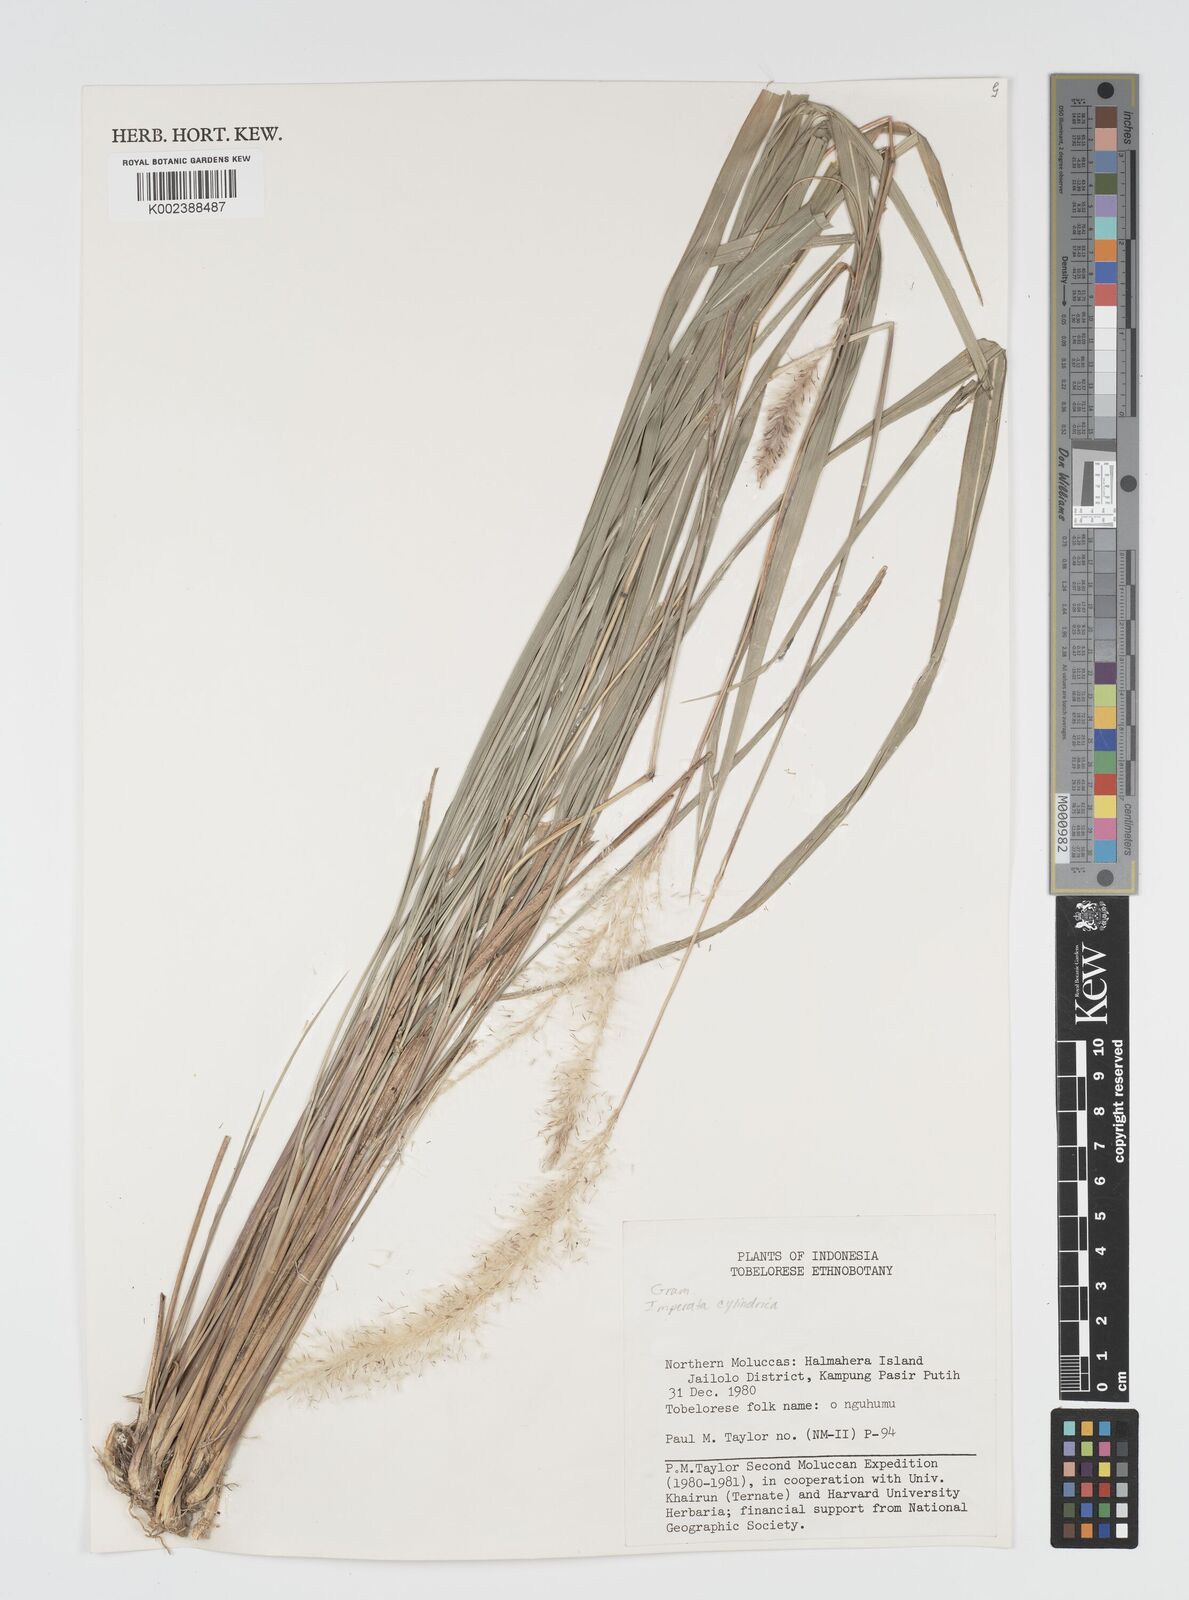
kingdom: Plantae
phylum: Tracheophyta
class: Liliopsida
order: Poales
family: Poaceae
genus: Imperata
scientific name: Imperata cylindrica
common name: Cogongrass
